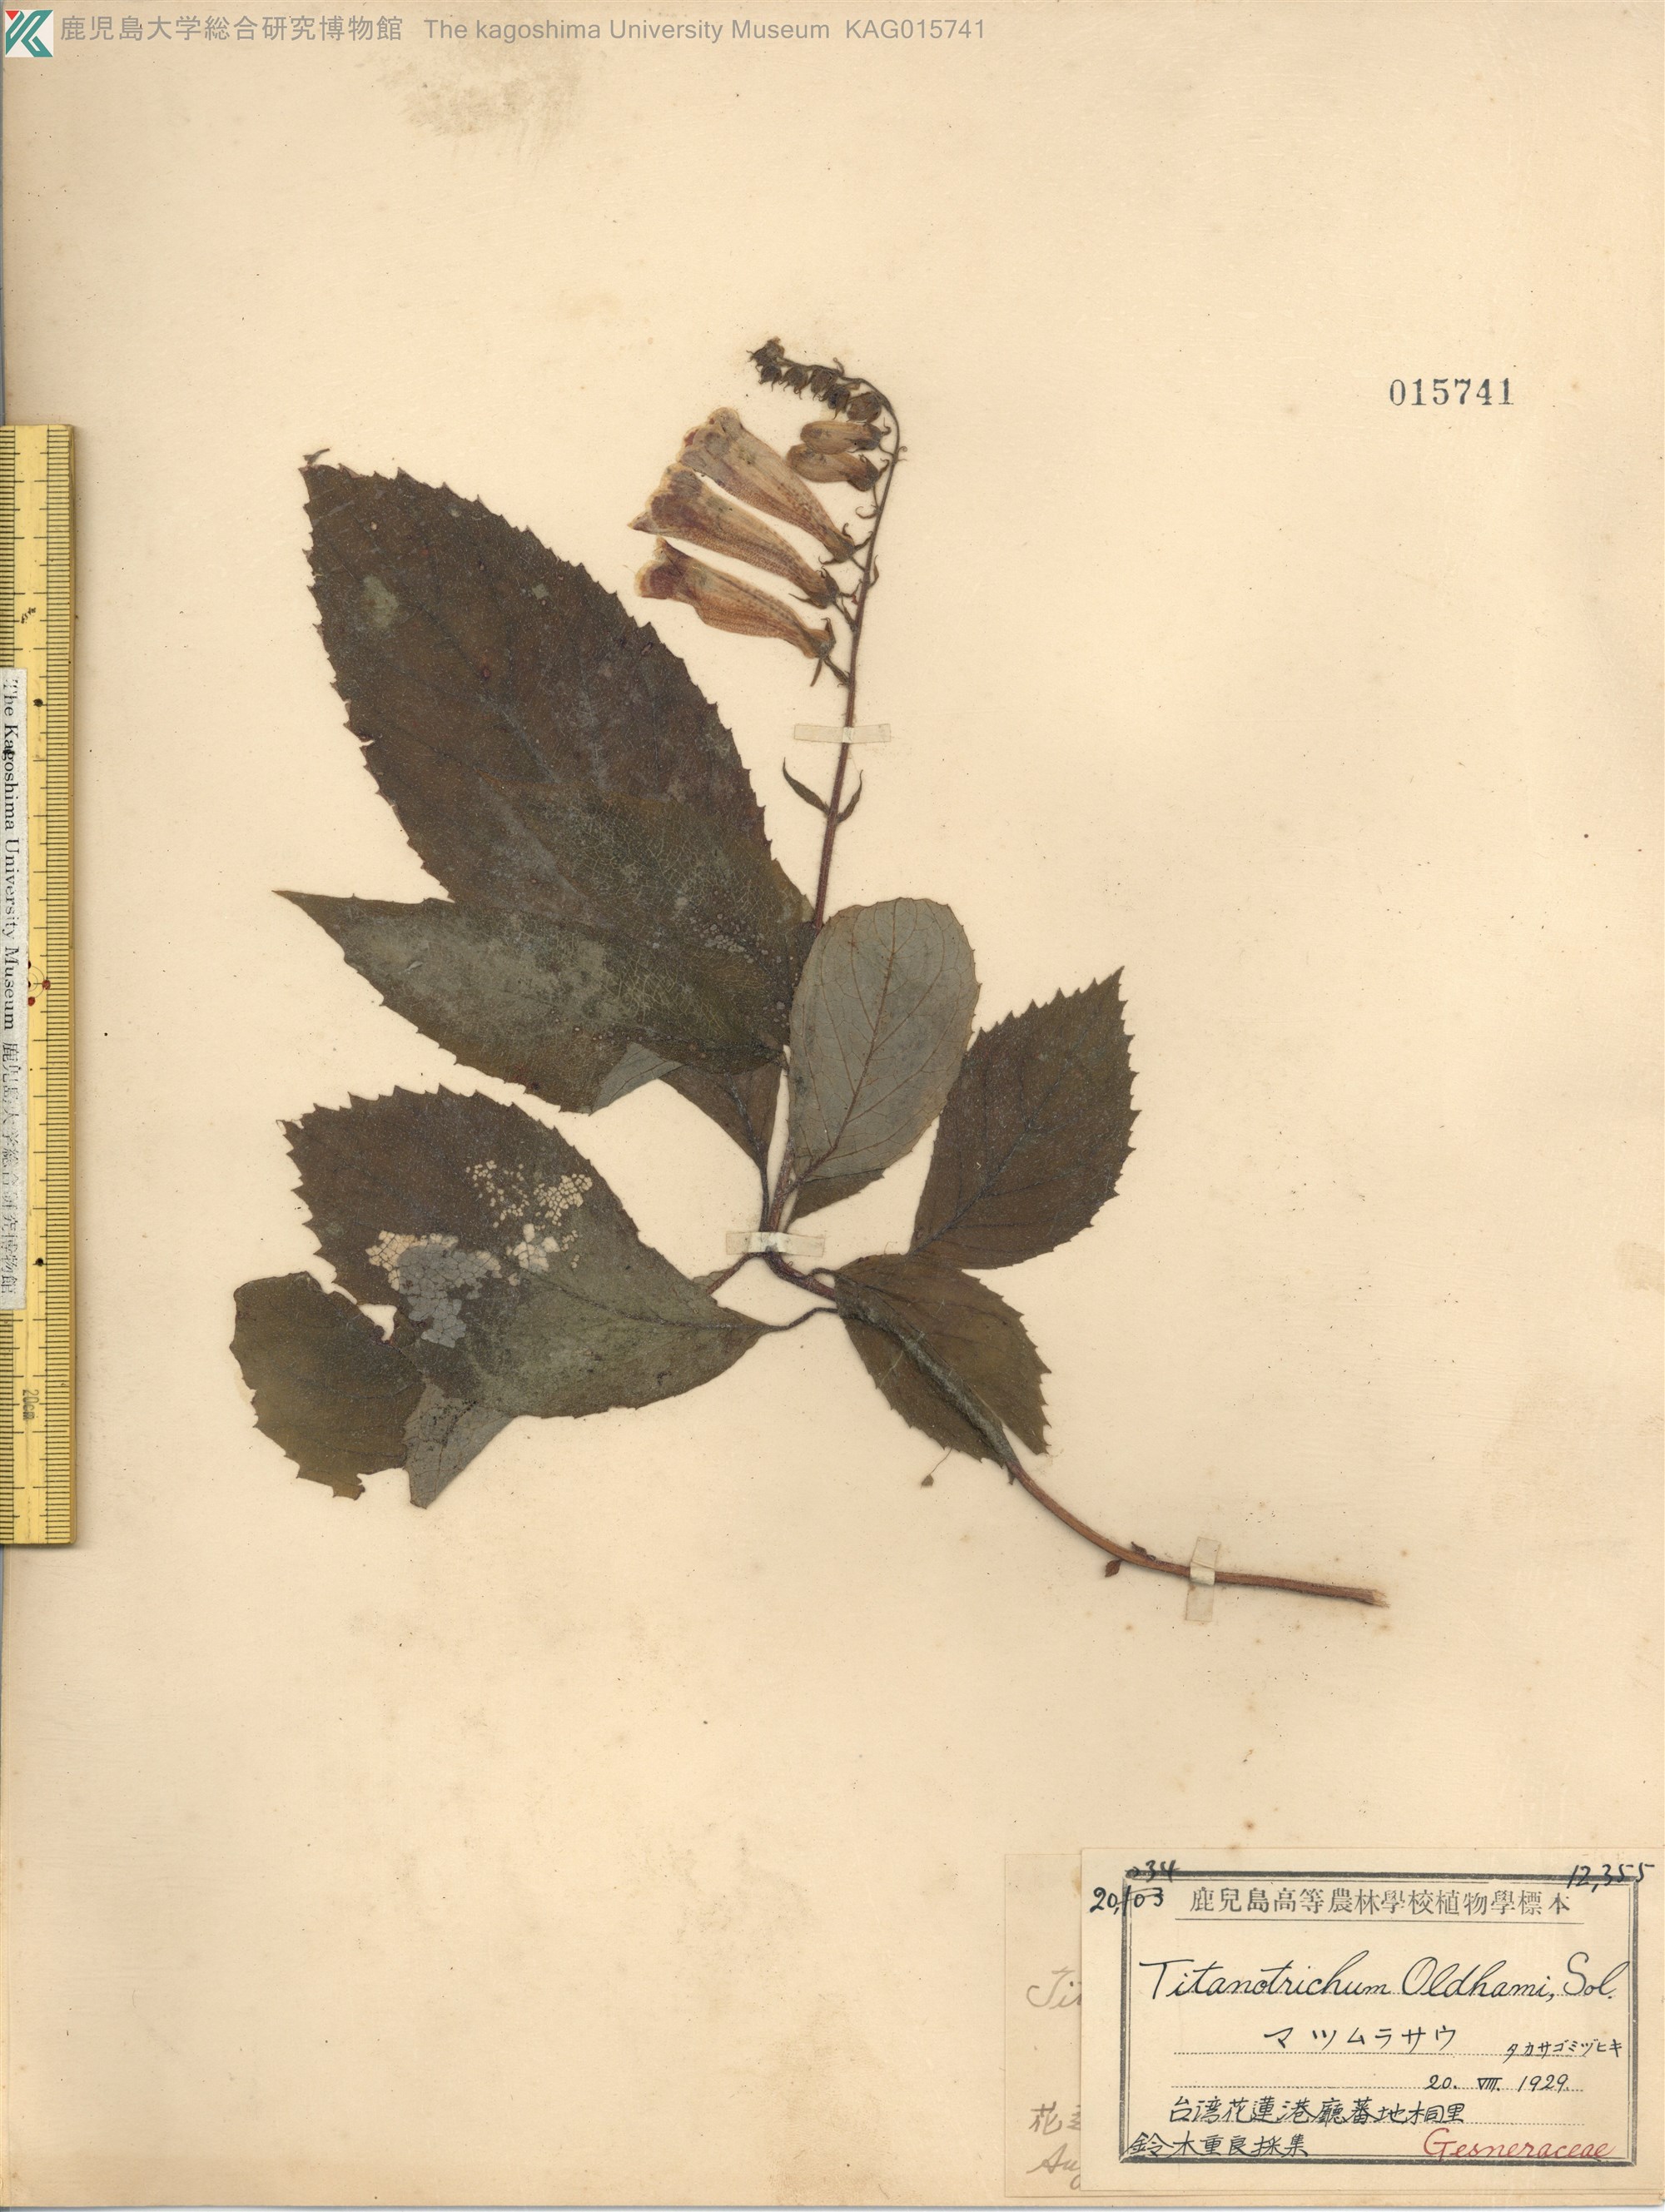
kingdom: Plantae
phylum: Tracheophyta
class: Magnoliopsida
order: Lamiales
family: Gesneriaceae
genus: Titanotrichum
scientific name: Titanotrichum oldhamii
